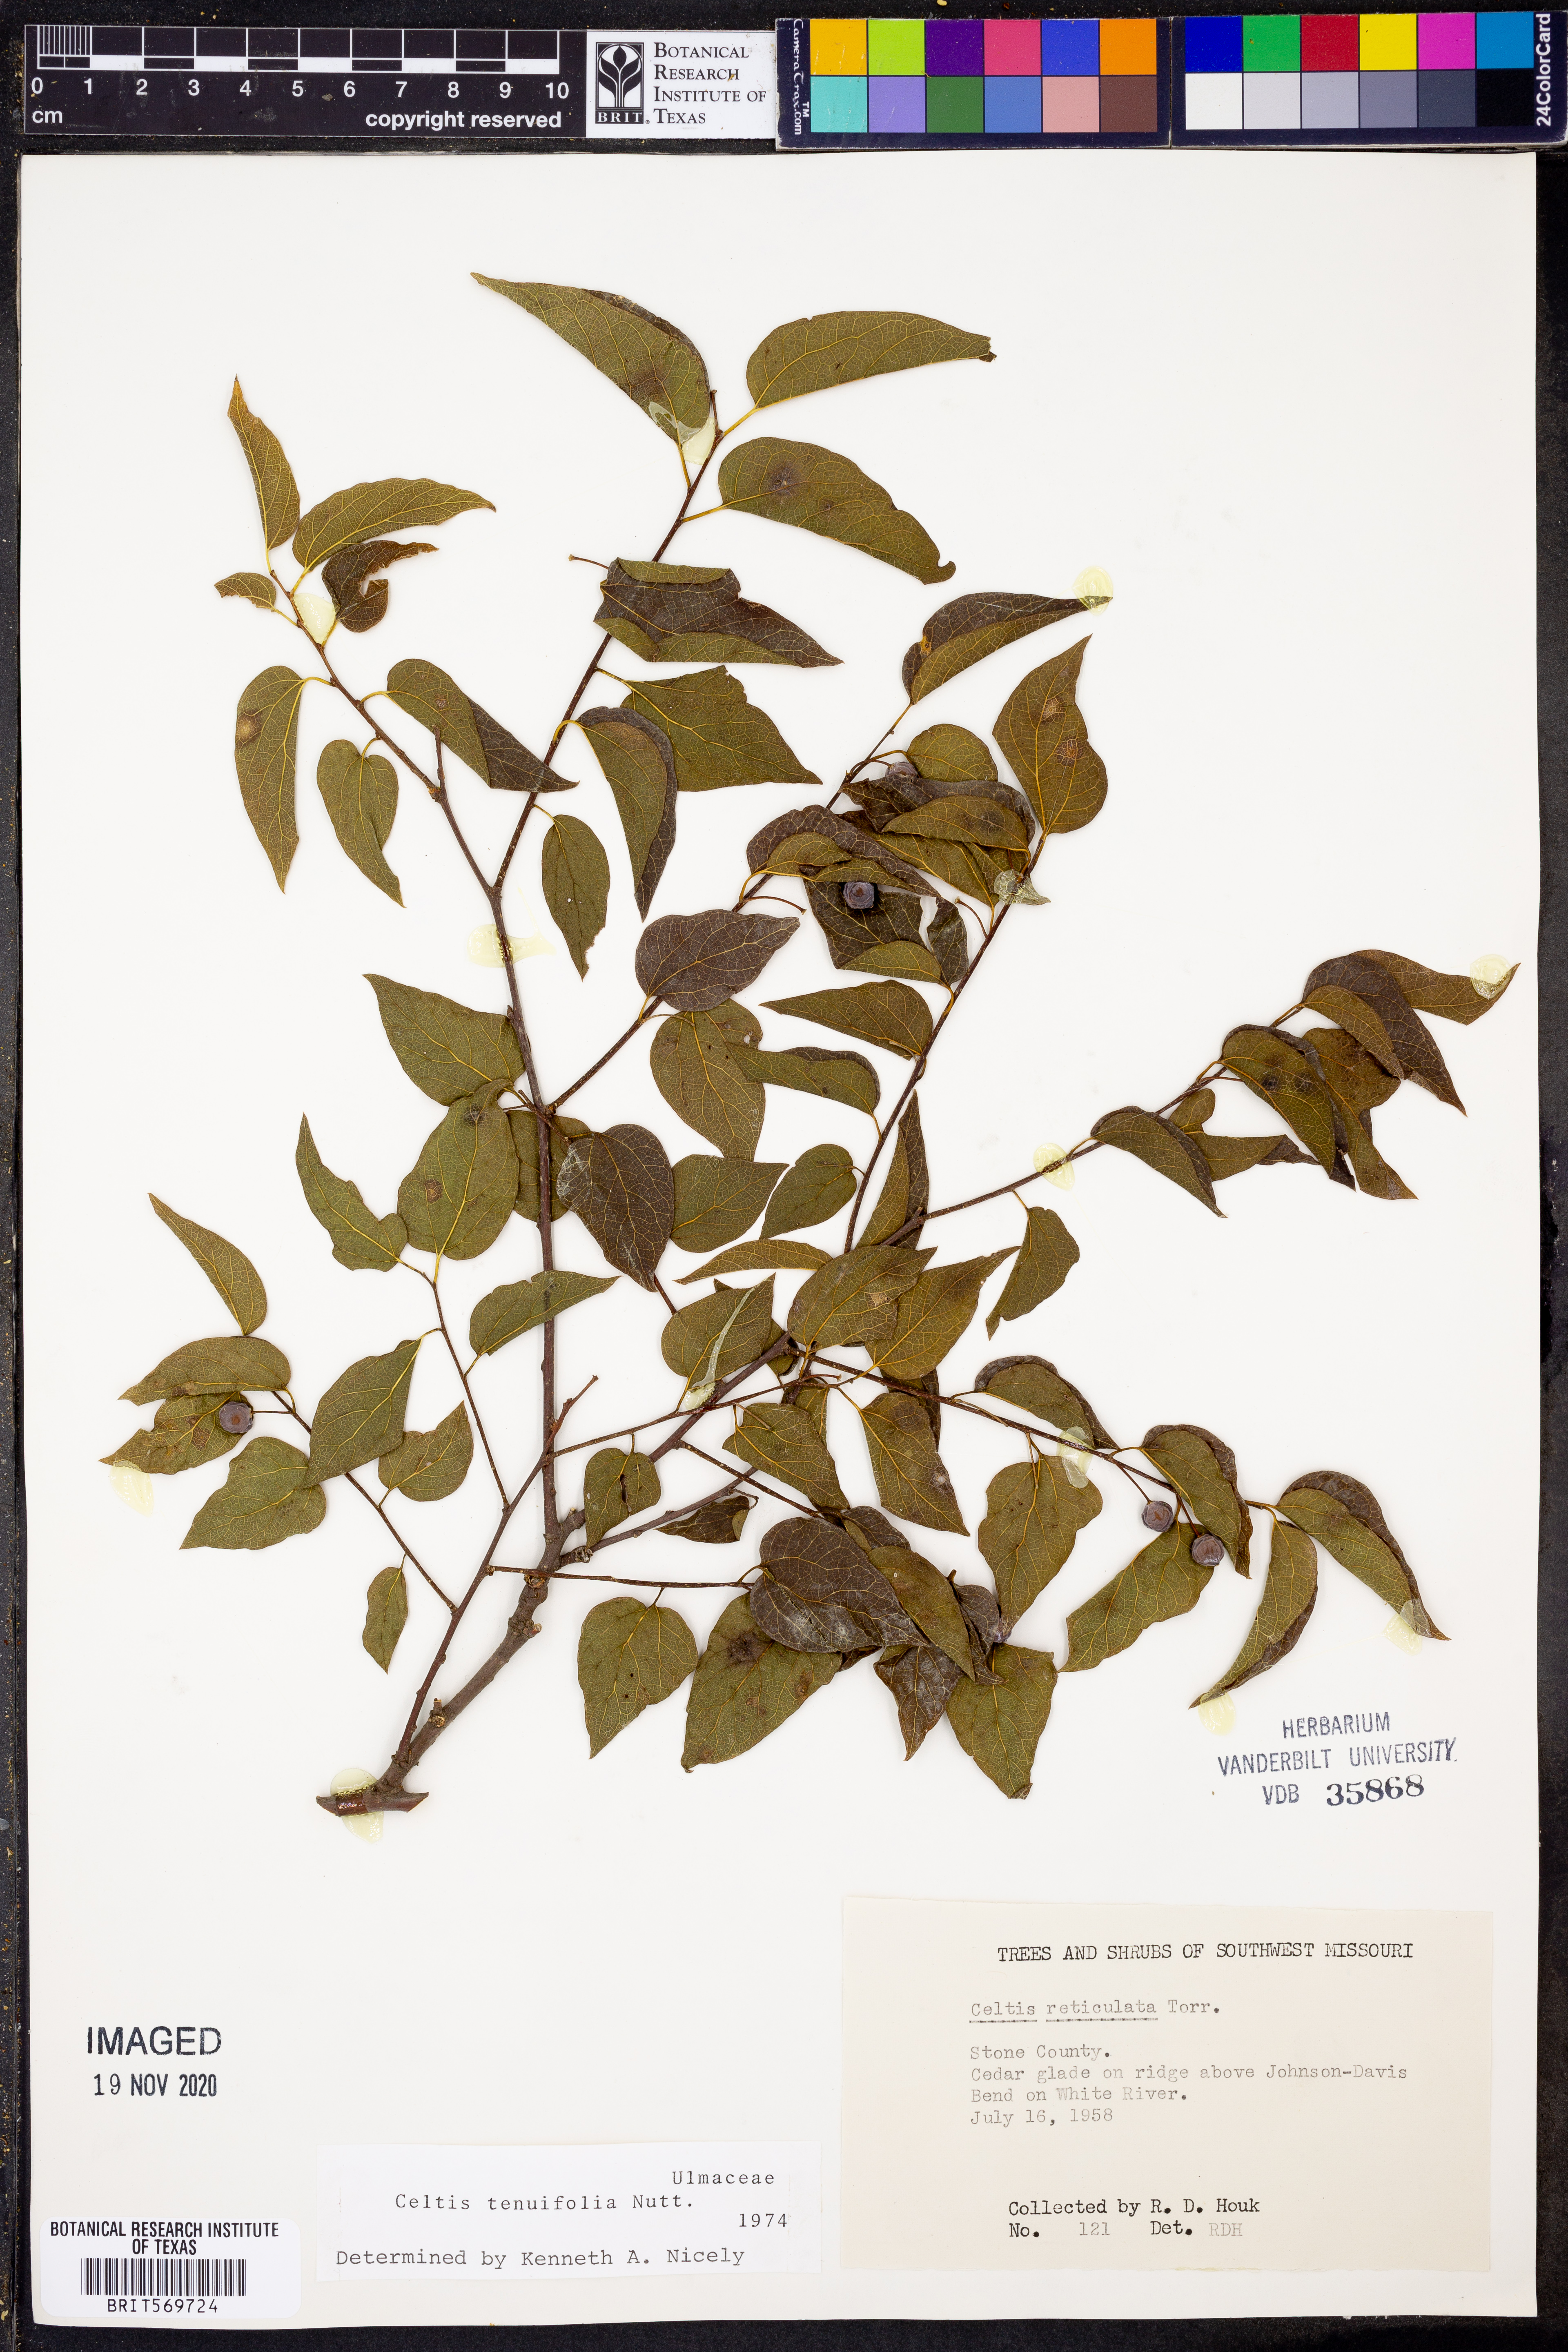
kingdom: Plantae
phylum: Tracheophyta
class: Magnoliopsida
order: Rosales
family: Cannabaceae
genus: Celtis
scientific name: Celtis tenuifolia
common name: Georgia hackberry
